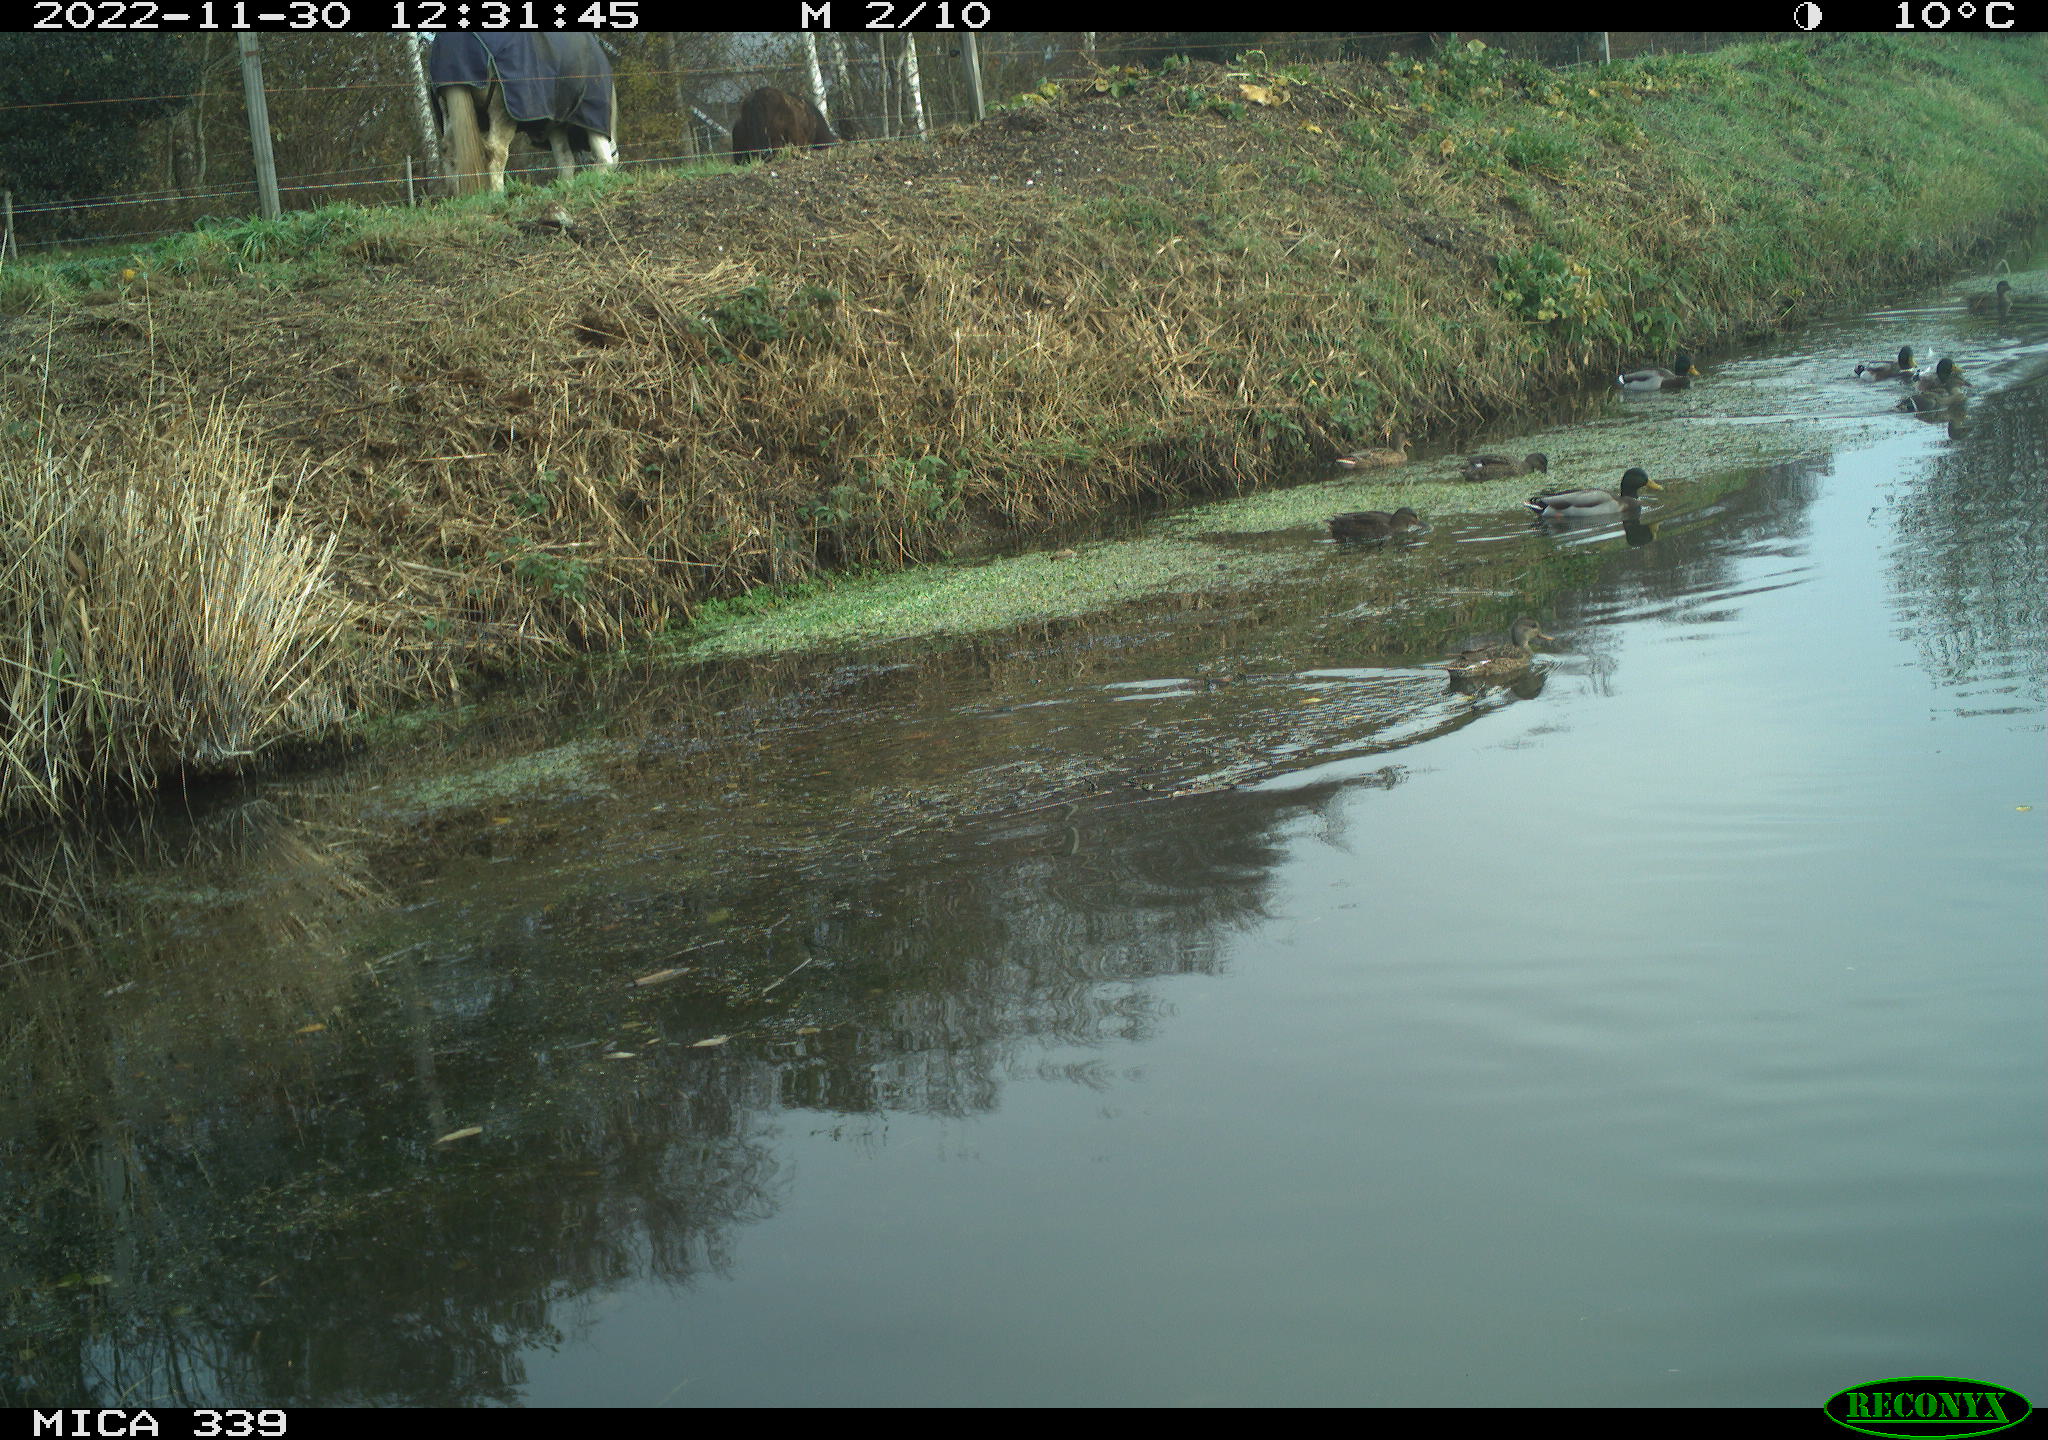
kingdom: Animalia
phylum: Chordata
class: Aves
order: Anseriformes
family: Anatidae
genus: Anas
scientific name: Anas
